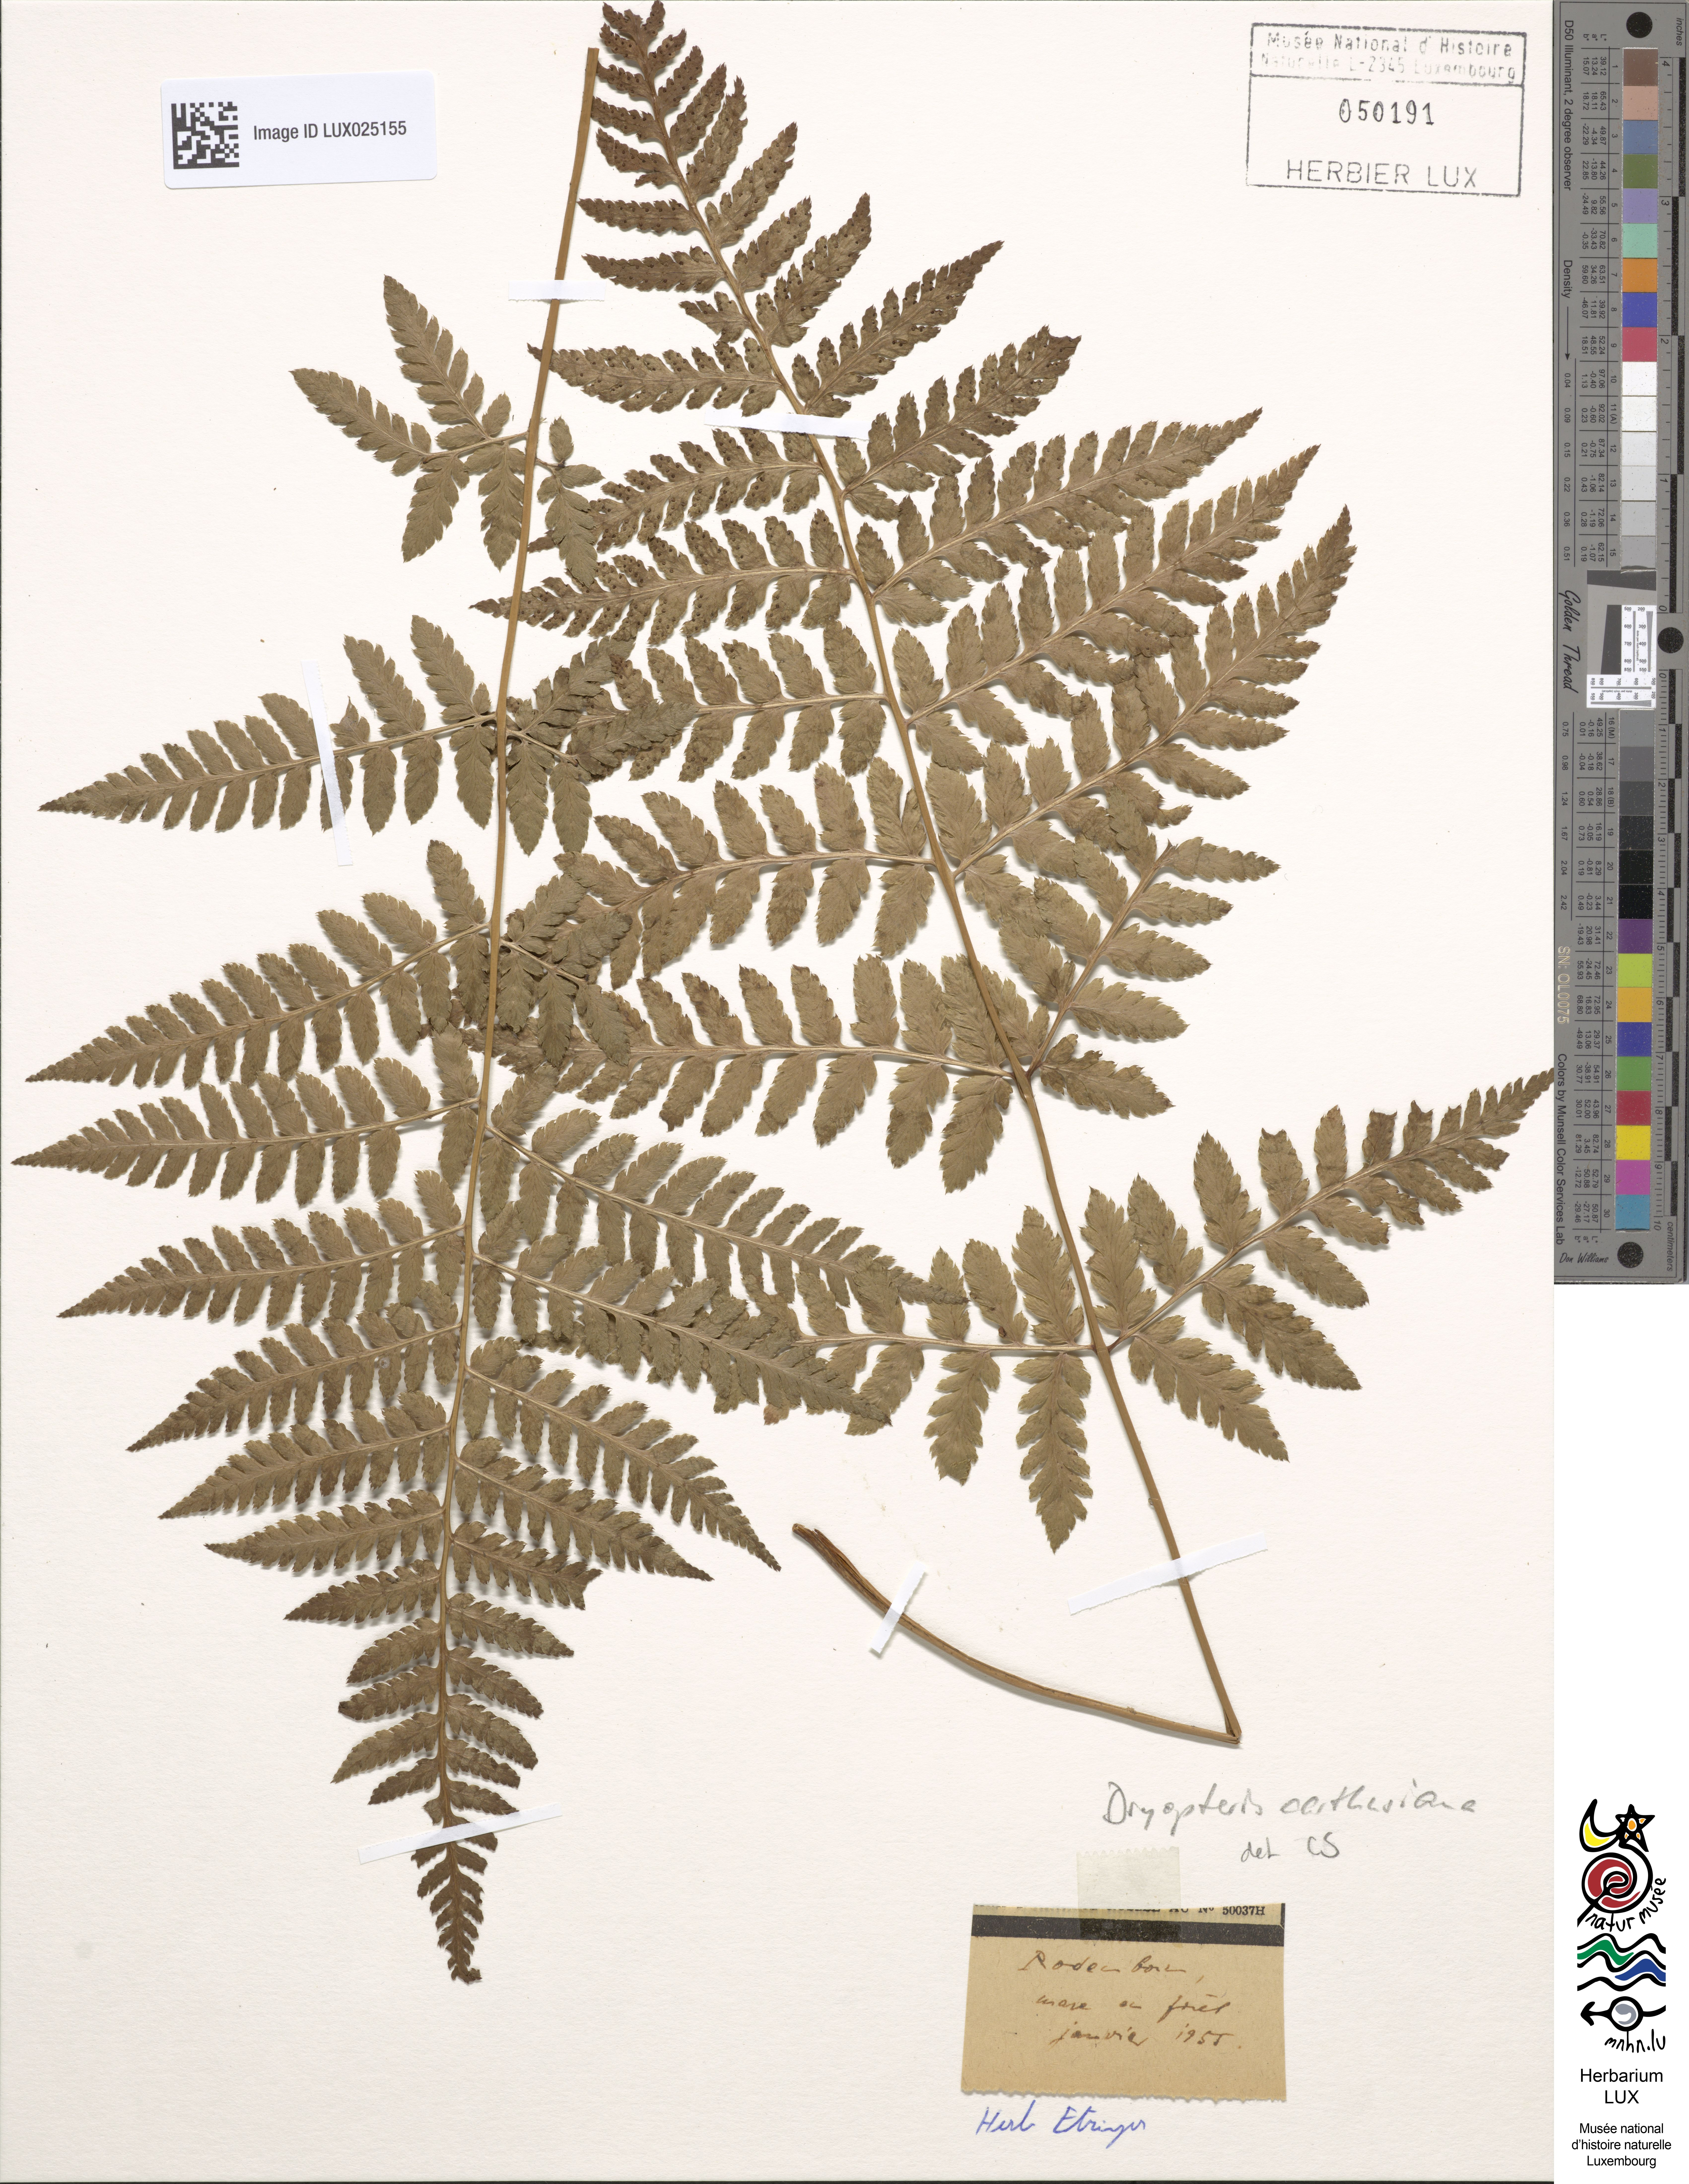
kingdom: Plantae
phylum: Tracheophyta
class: Polypodiopsida
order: Polypodiales
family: Dryopteridaceae
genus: Dryopteris
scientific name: Dryopteris carthusiana
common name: Narrow buckler-fern
